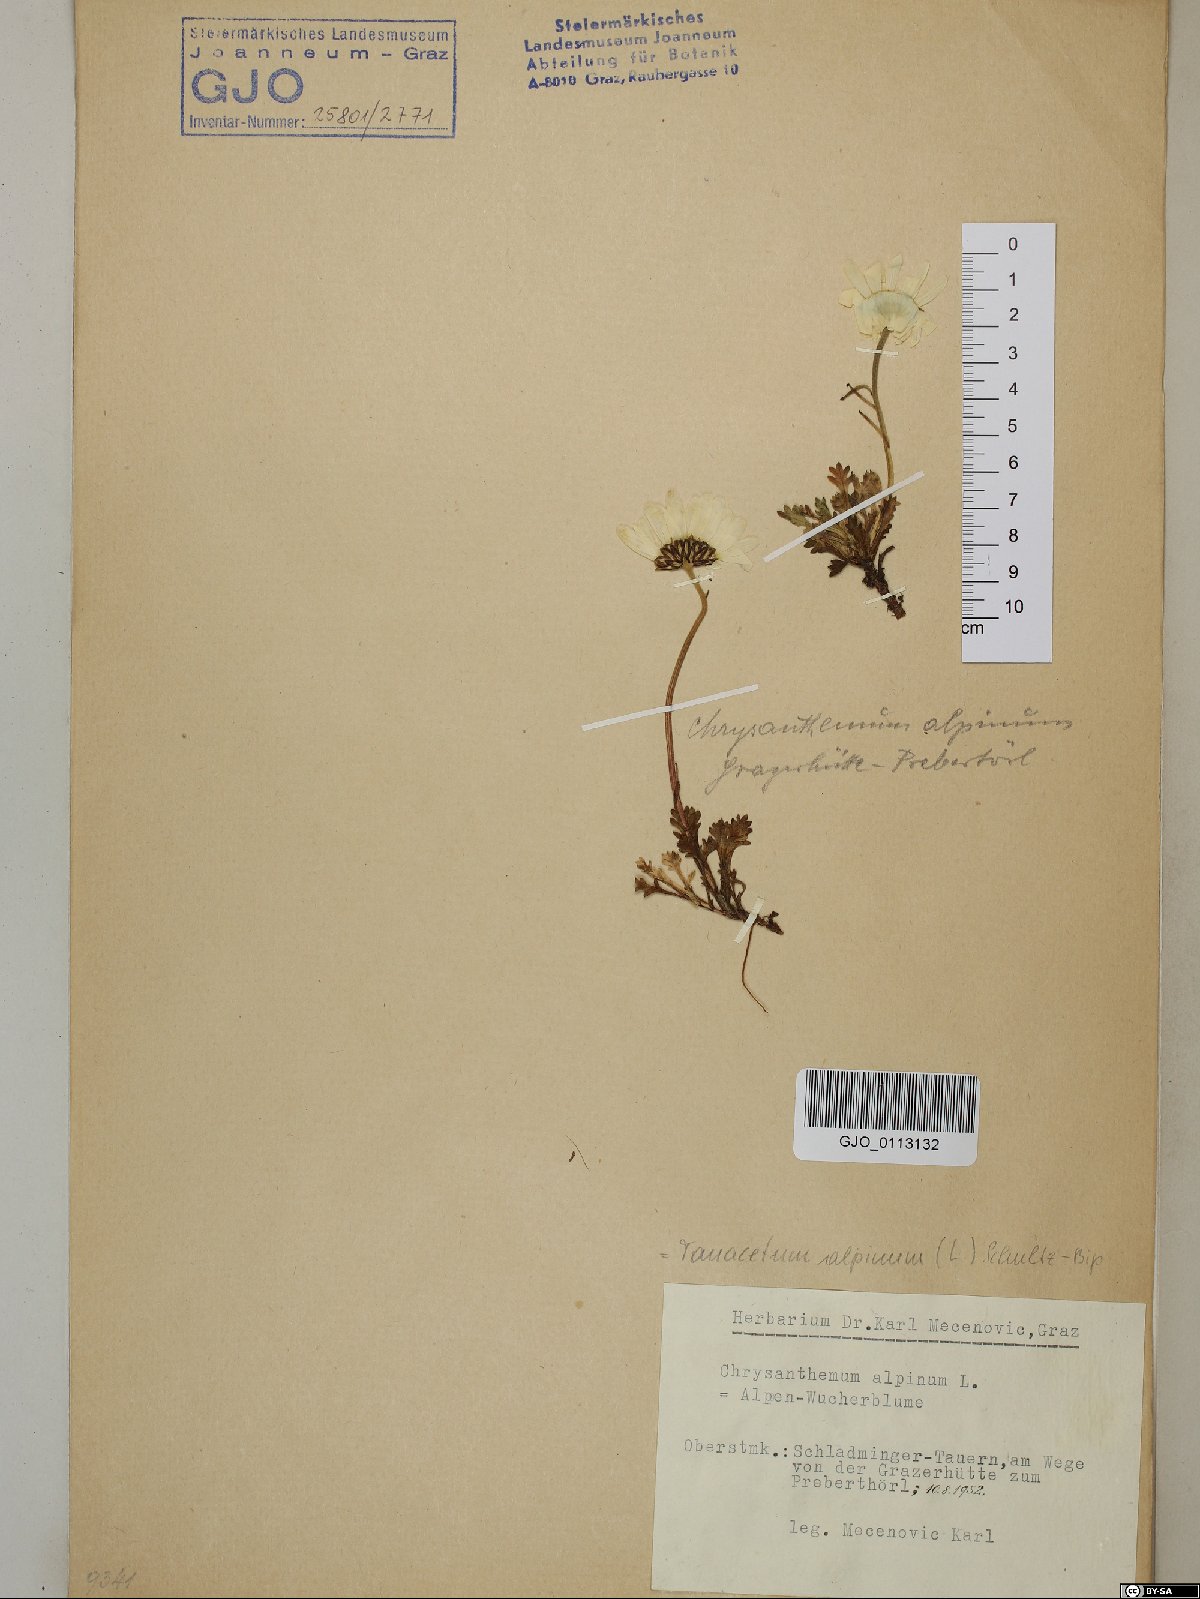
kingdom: Plantae
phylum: Tracheophyta
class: Magnoliopsida
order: Asterales
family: Asteraceae
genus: Leucanthemopsis
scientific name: Leucanthemopsis alpina
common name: Alpine moon daisy
